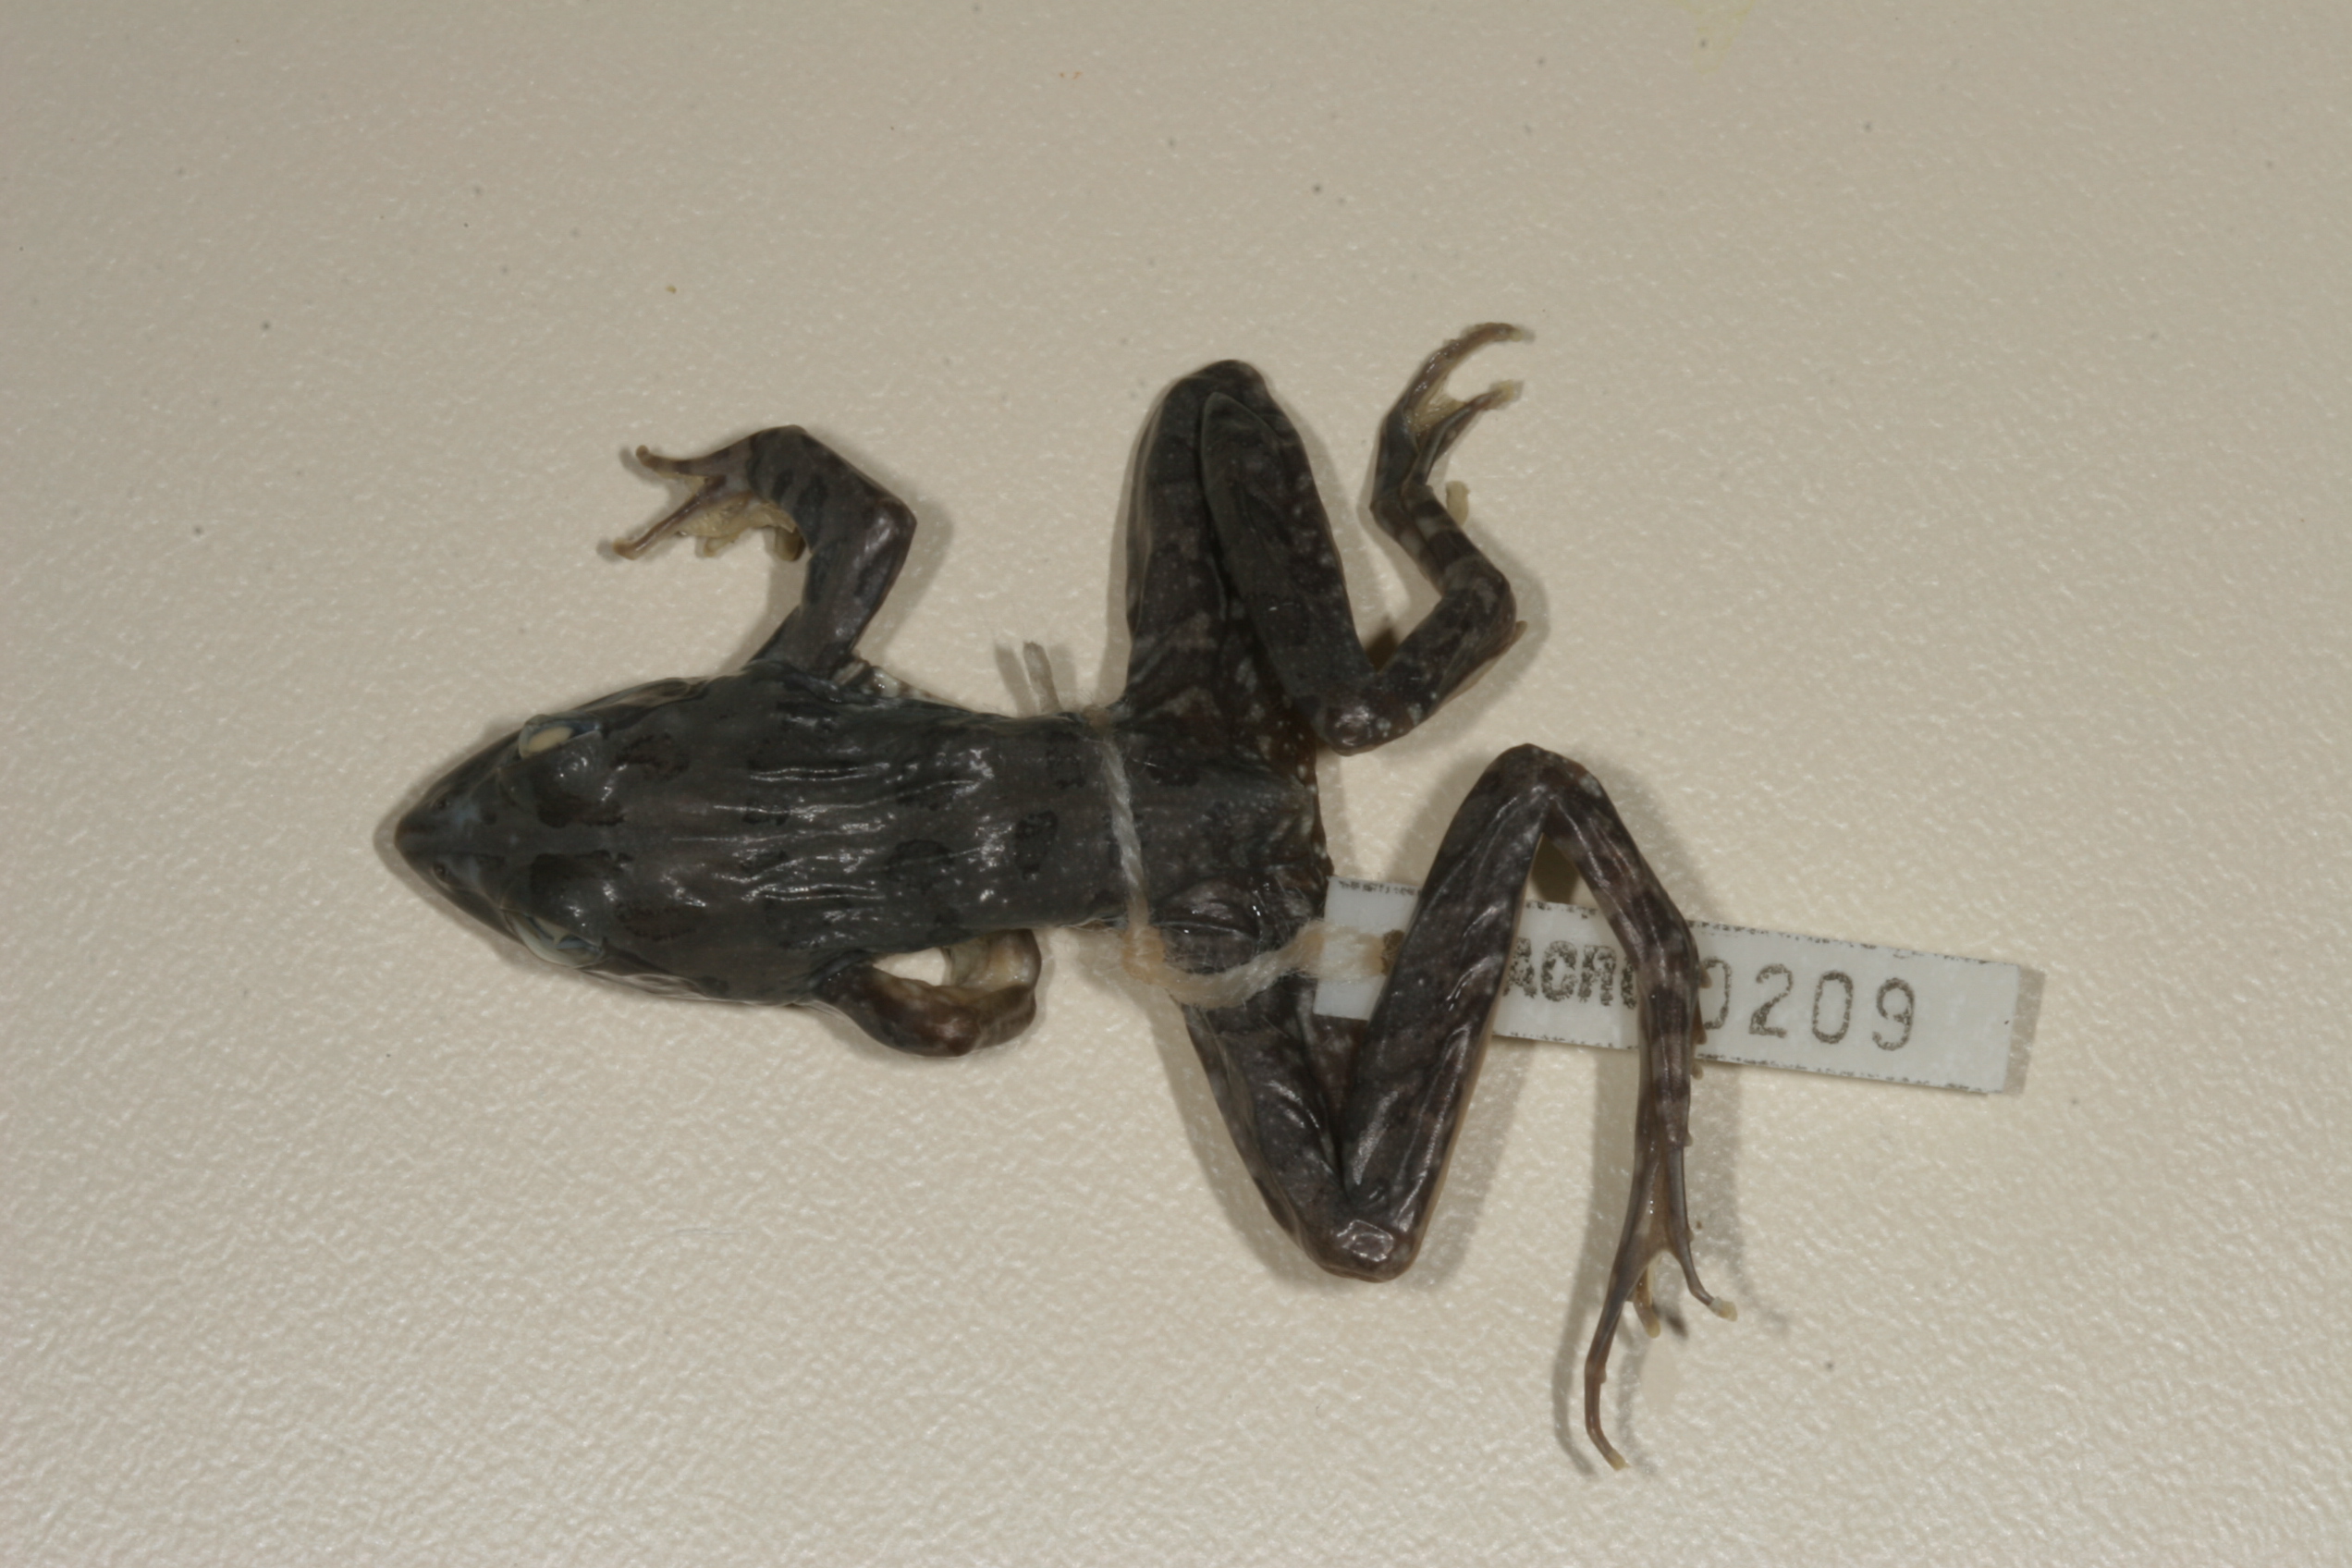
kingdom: Animalia
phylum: Chordata
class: Amphibia
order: Anura
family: Pyxicephalidae
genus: Amietia
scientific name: Amietia angolensis
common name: Dusky-throated frog
